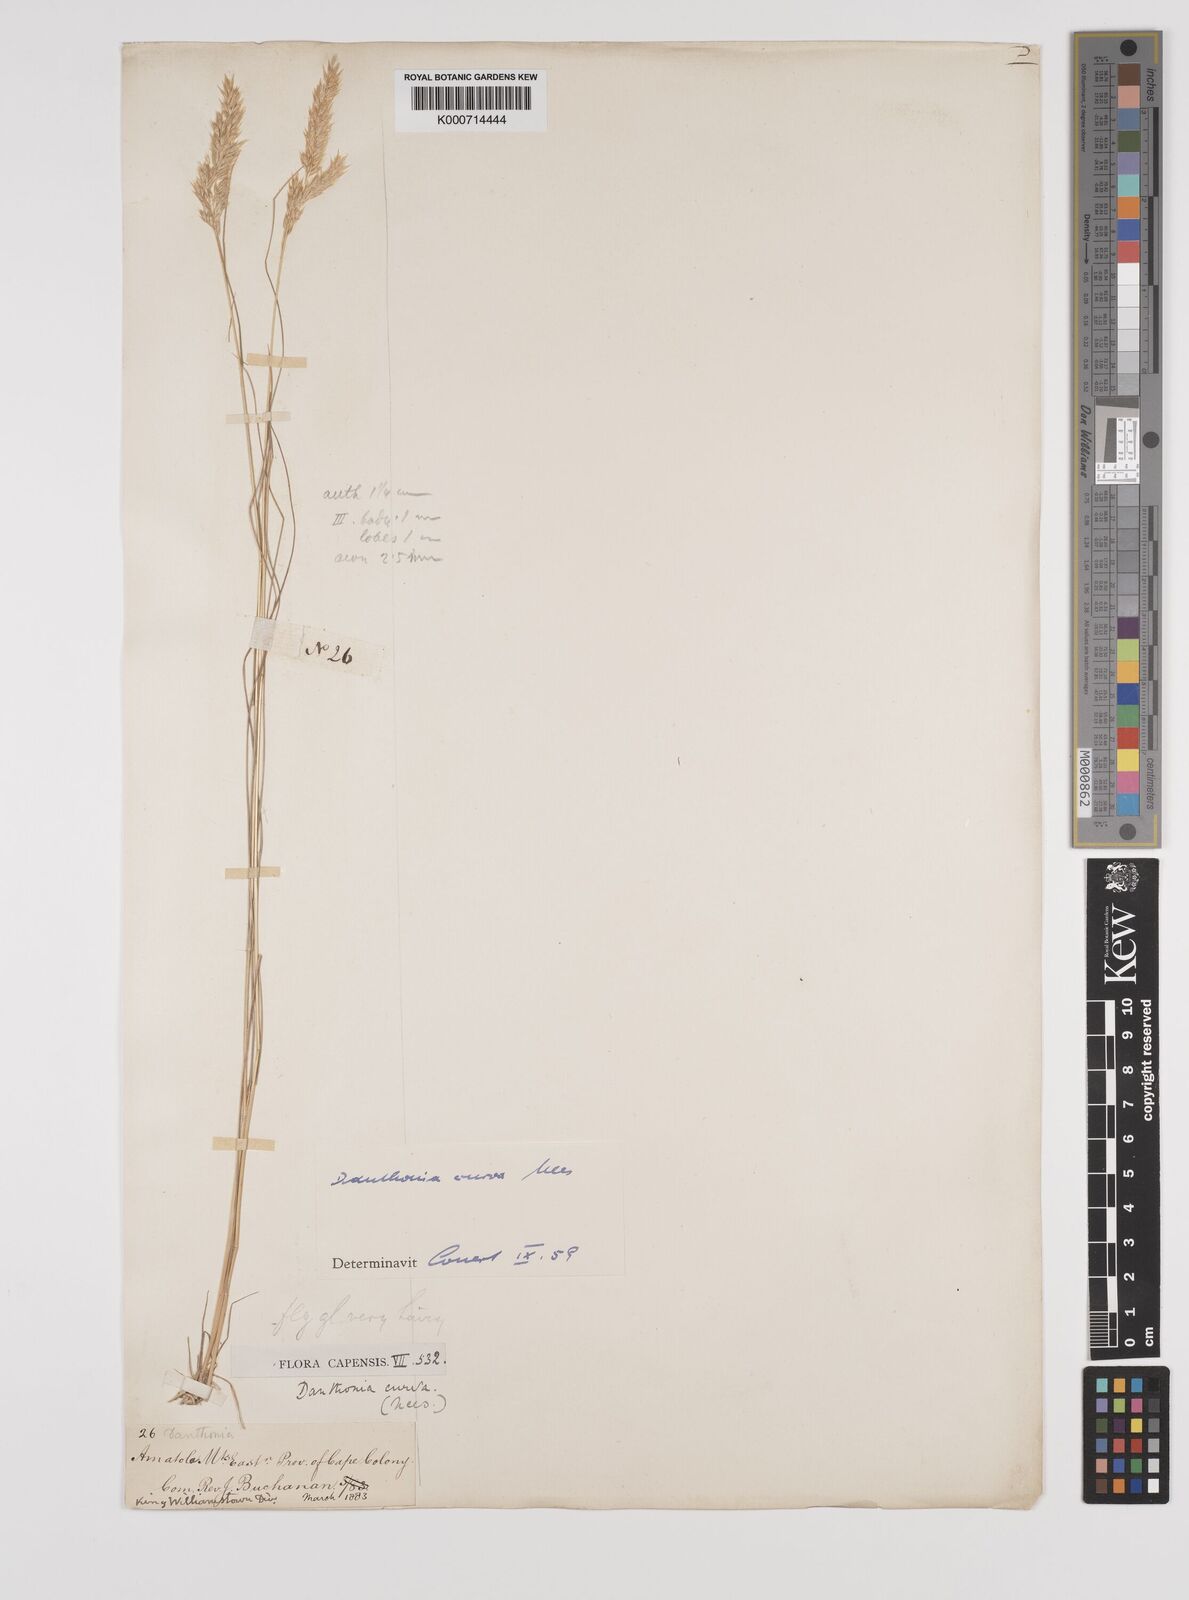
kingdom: Plantae
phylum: Tracheophyta
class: Liliopsida
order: Poales
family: Poaceae
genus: Rytidosperma
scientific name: Rytidosperma
